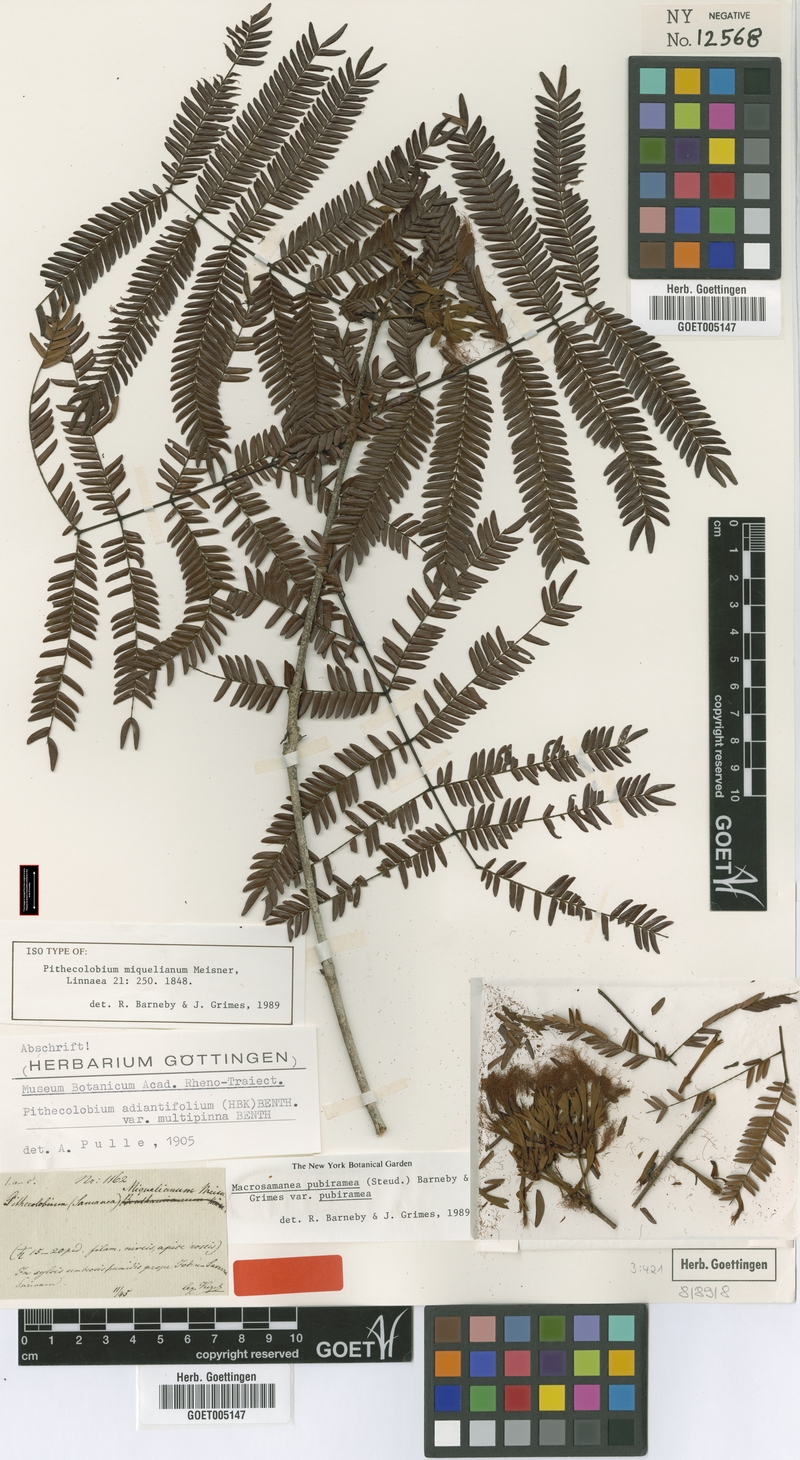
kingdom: Plantae
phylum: Tracheophyta
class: Magnoliopsida
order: Fabales
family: Fabaceae
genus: Macrosamanea
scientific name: Macrosamanea pubiramea
